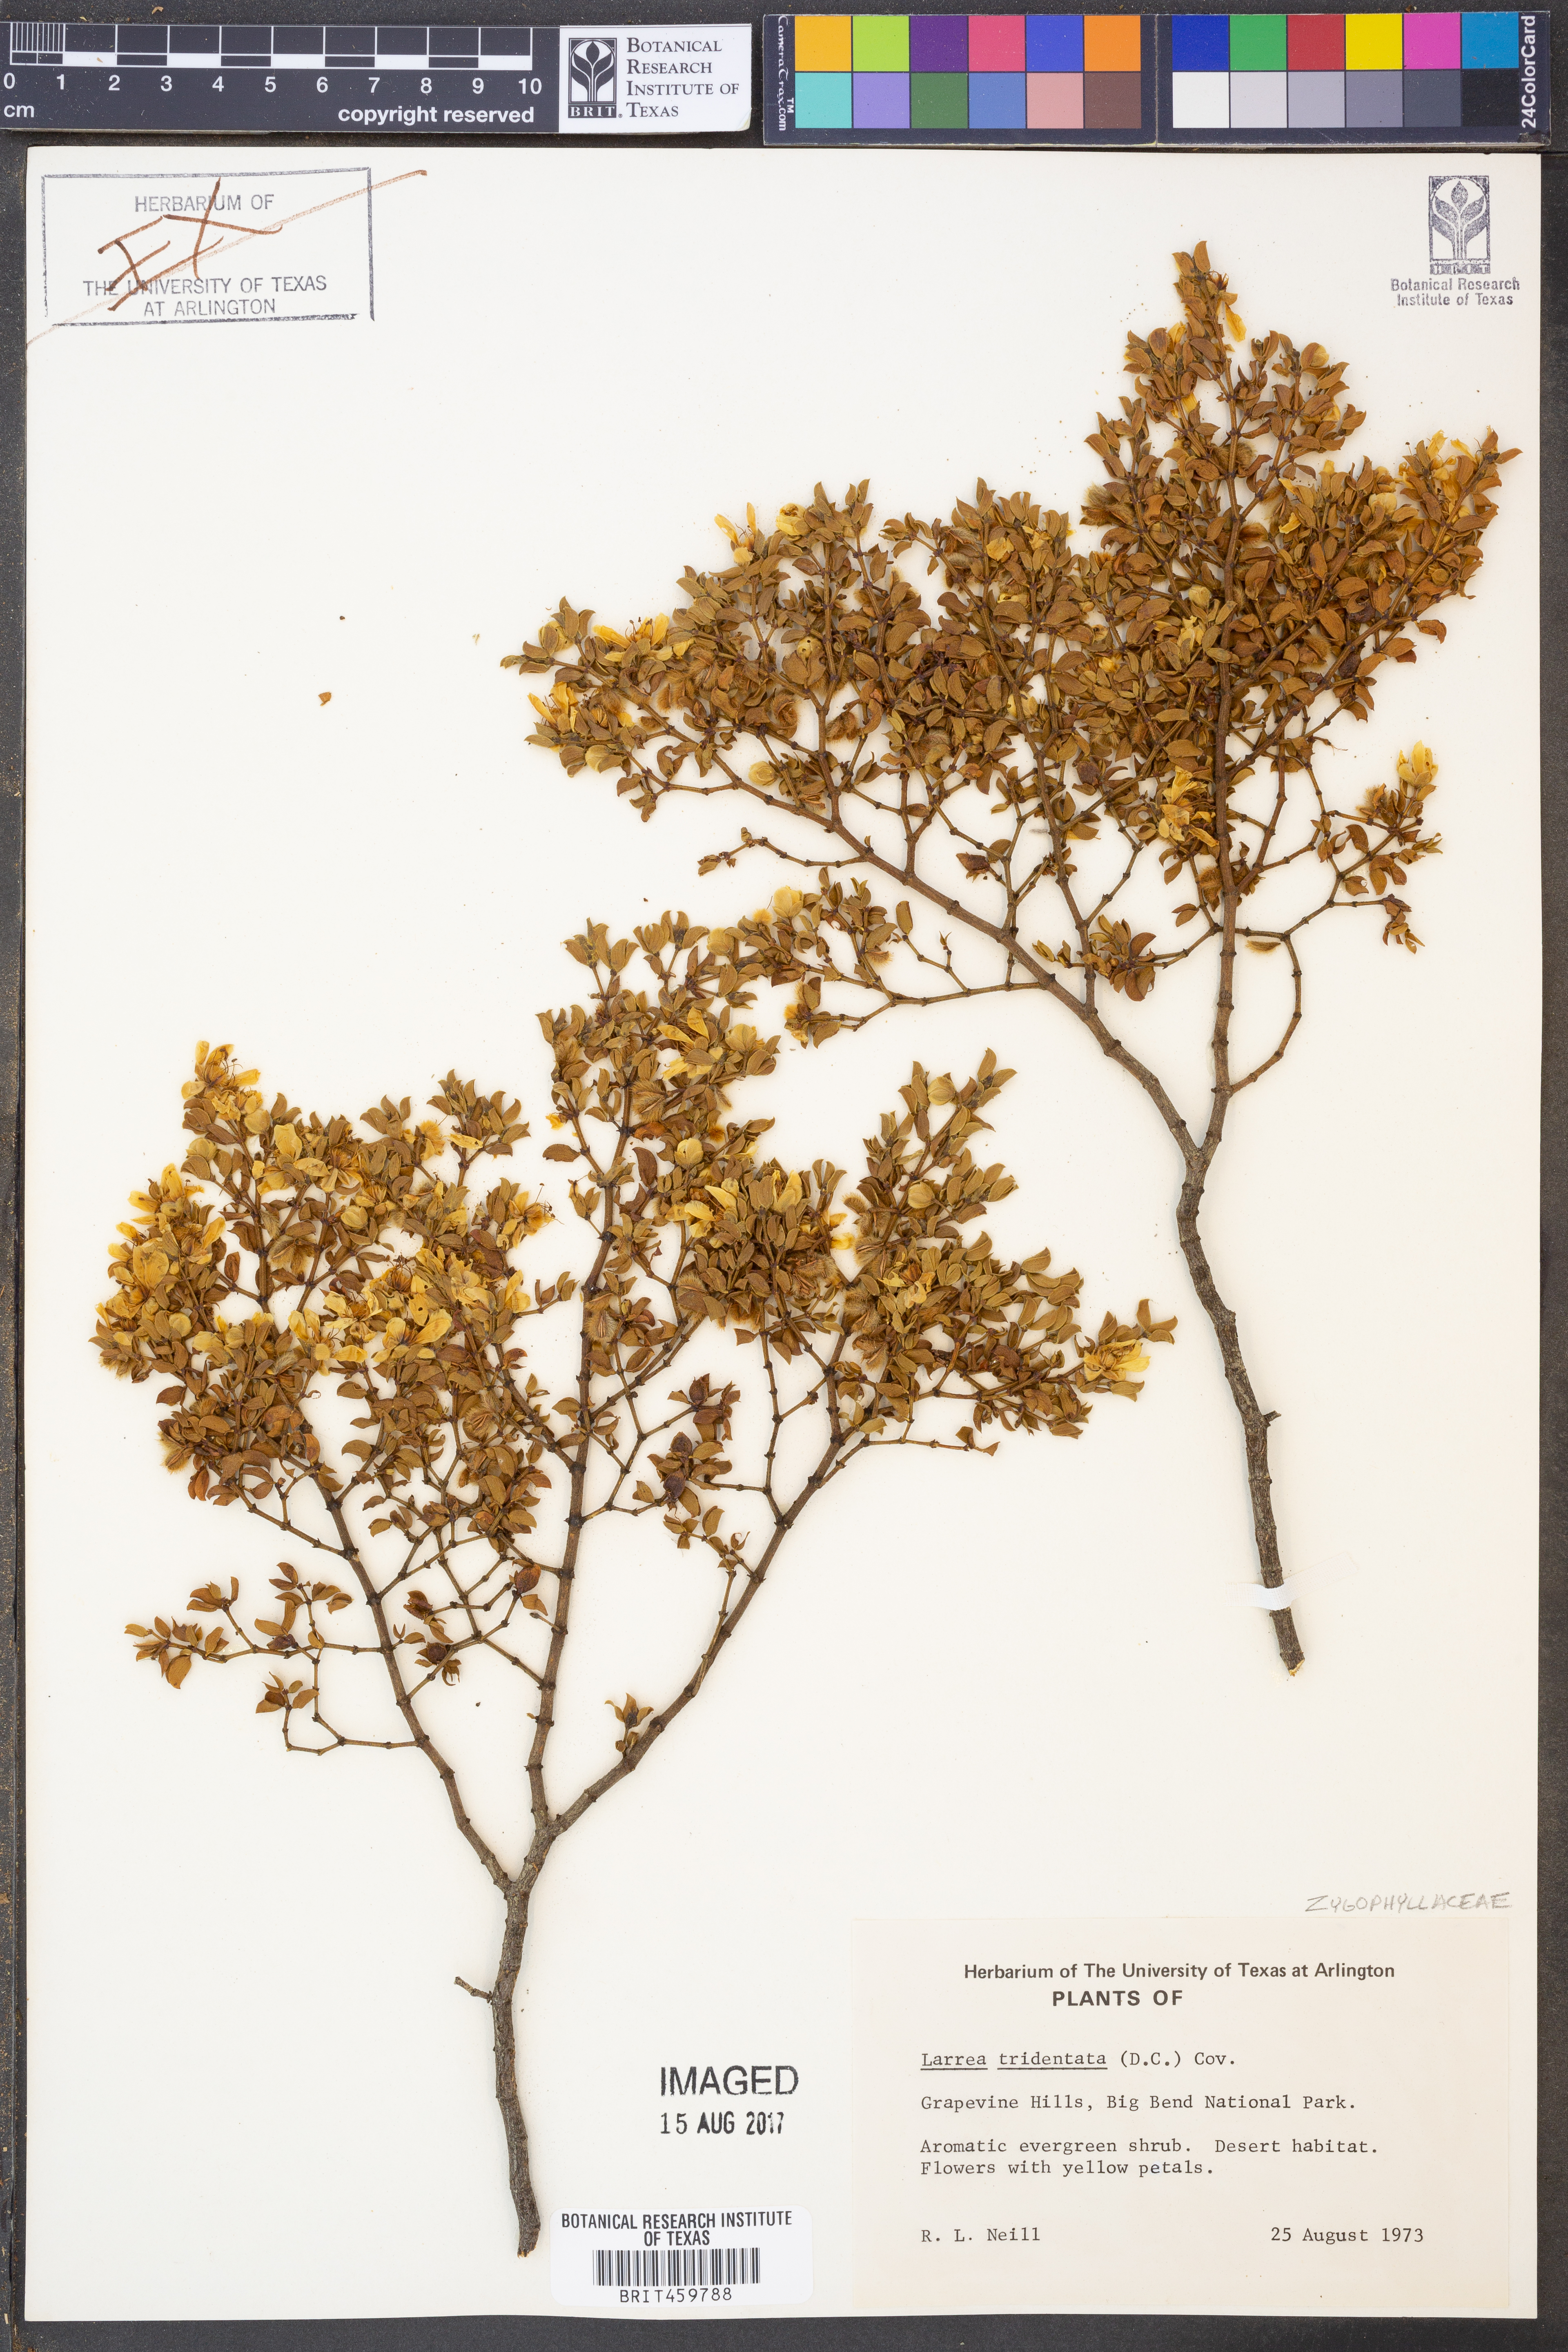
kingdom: Plantae
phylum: Tracheophyta
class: Magnoliopsida
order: Zygophyllales
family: Zygophyllaceae
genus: Larrea
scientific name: Larrea tridentata
